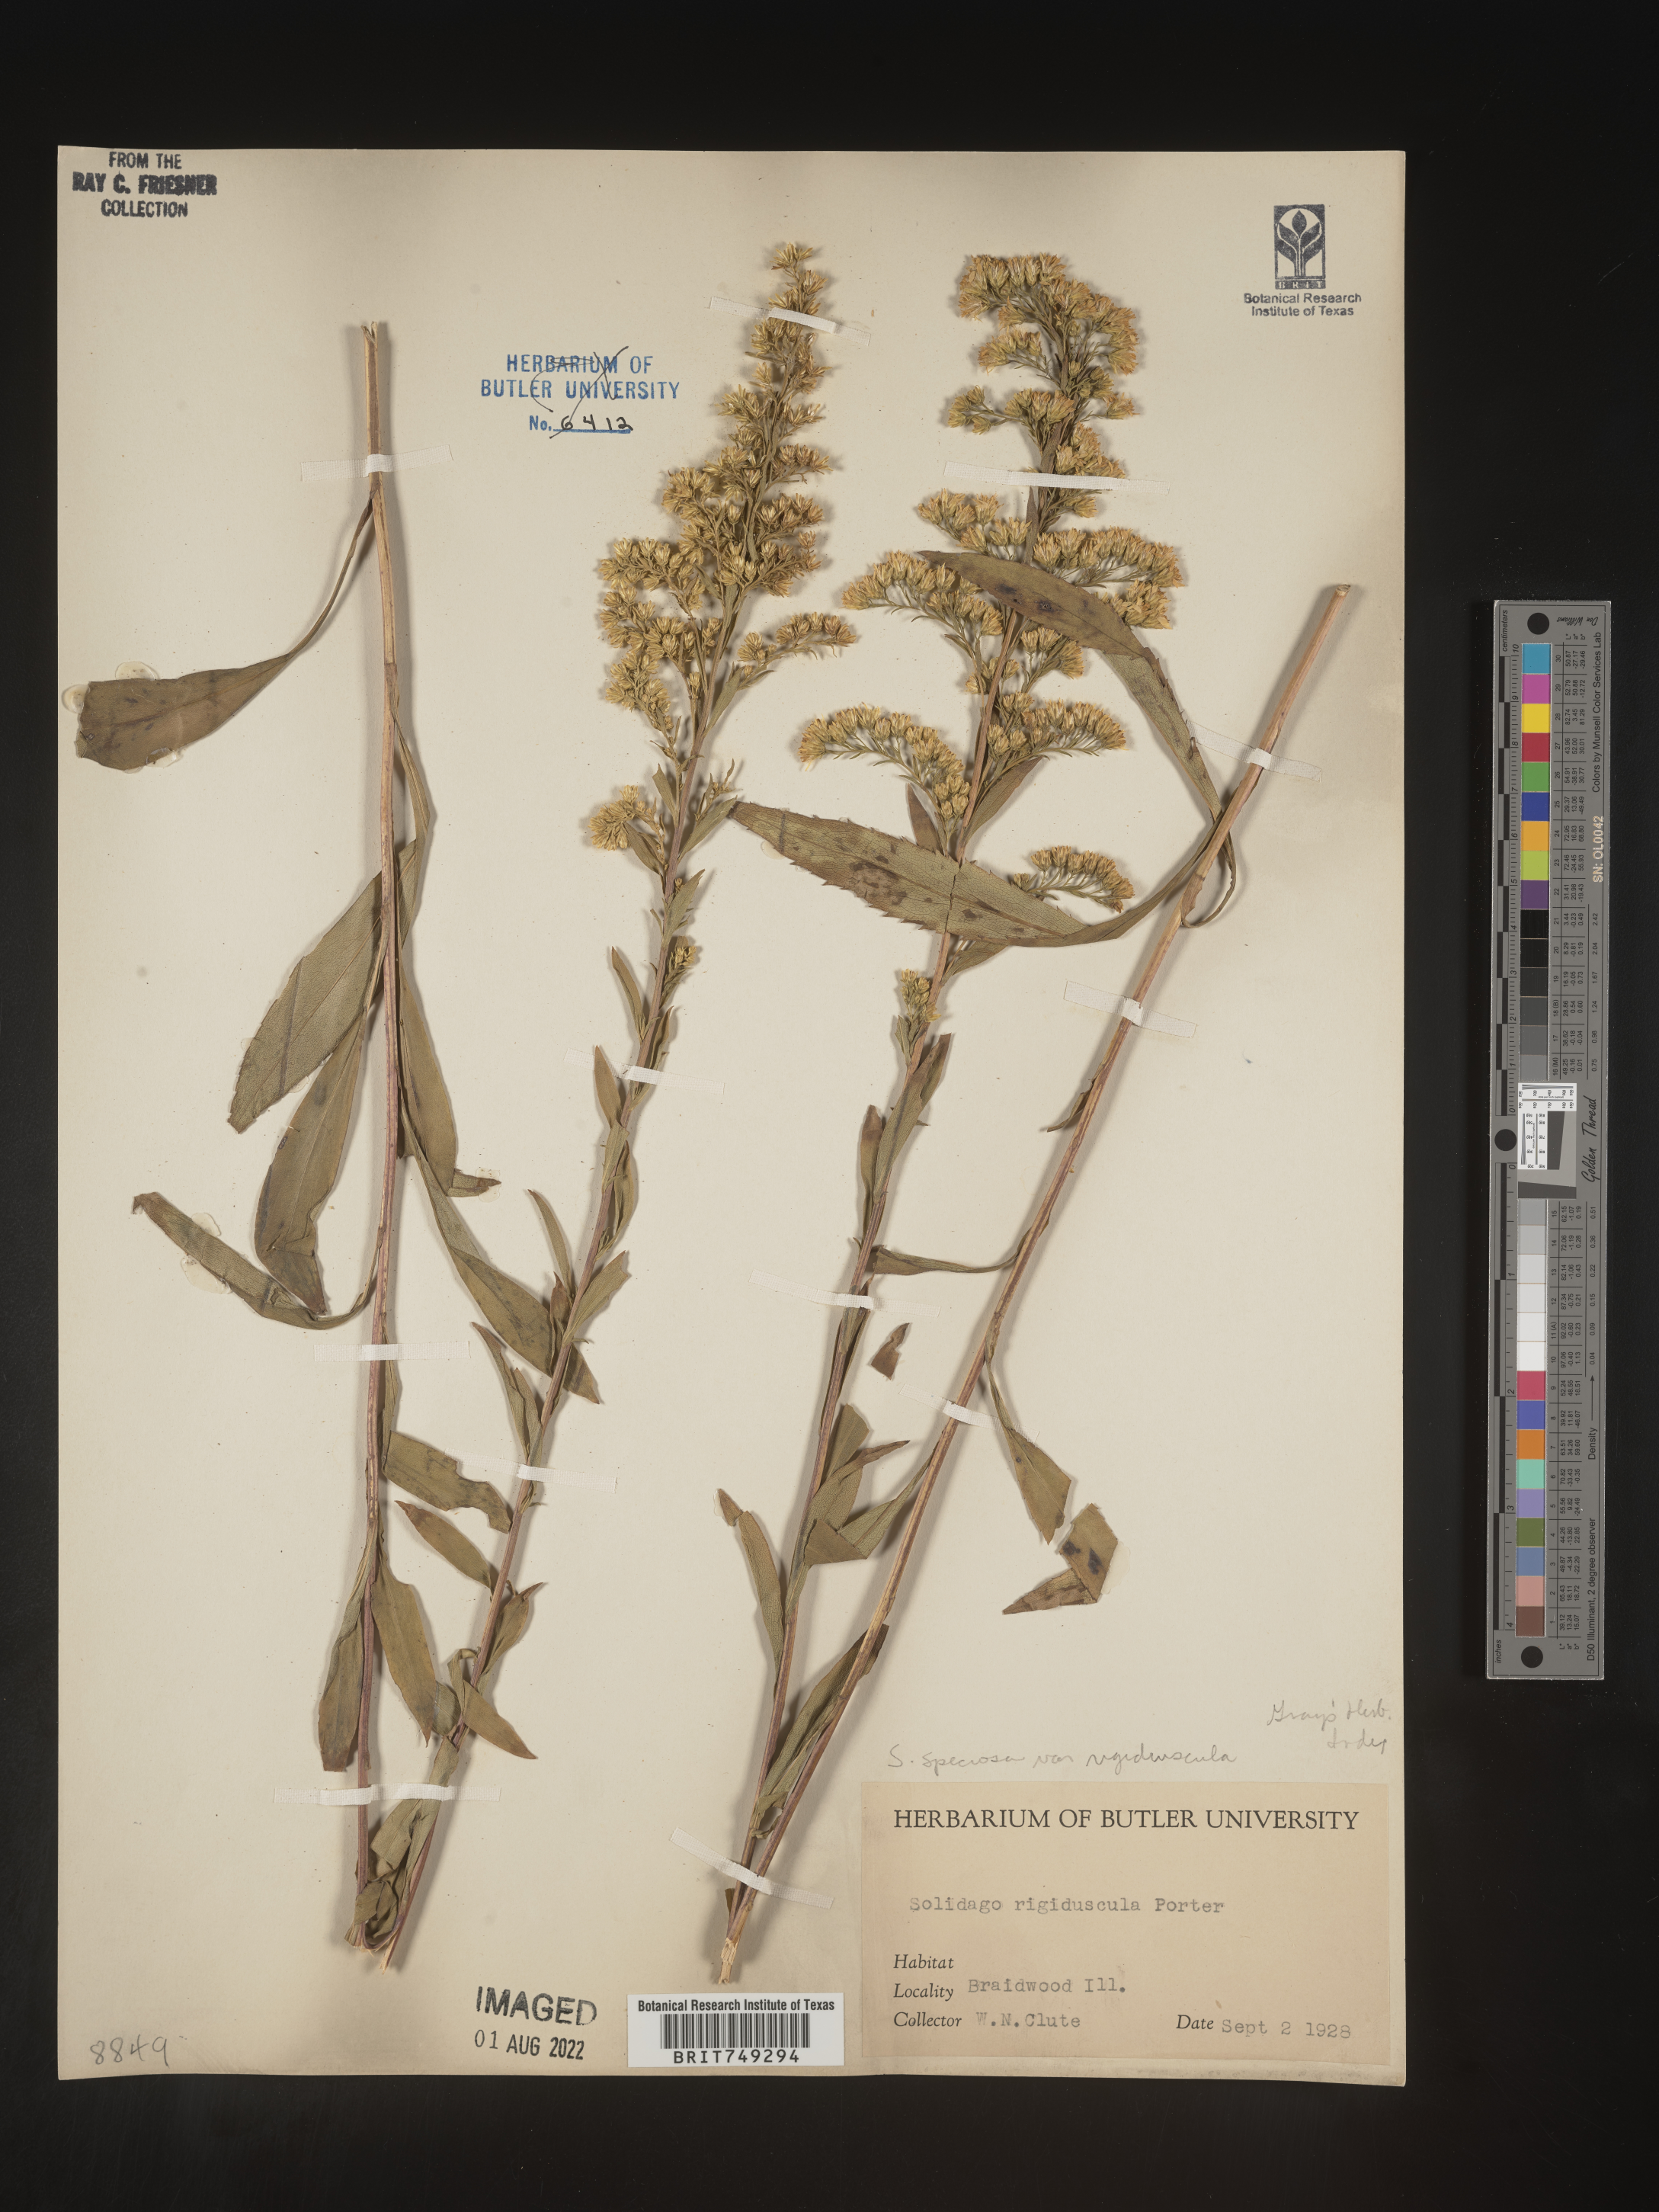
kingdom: Plantae
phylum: Tracheophyta
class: Magnoliopsida
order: Asterales
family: Asteraceae
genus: Solidago
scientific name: Solidago speciosa
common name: Showy goldenrod
